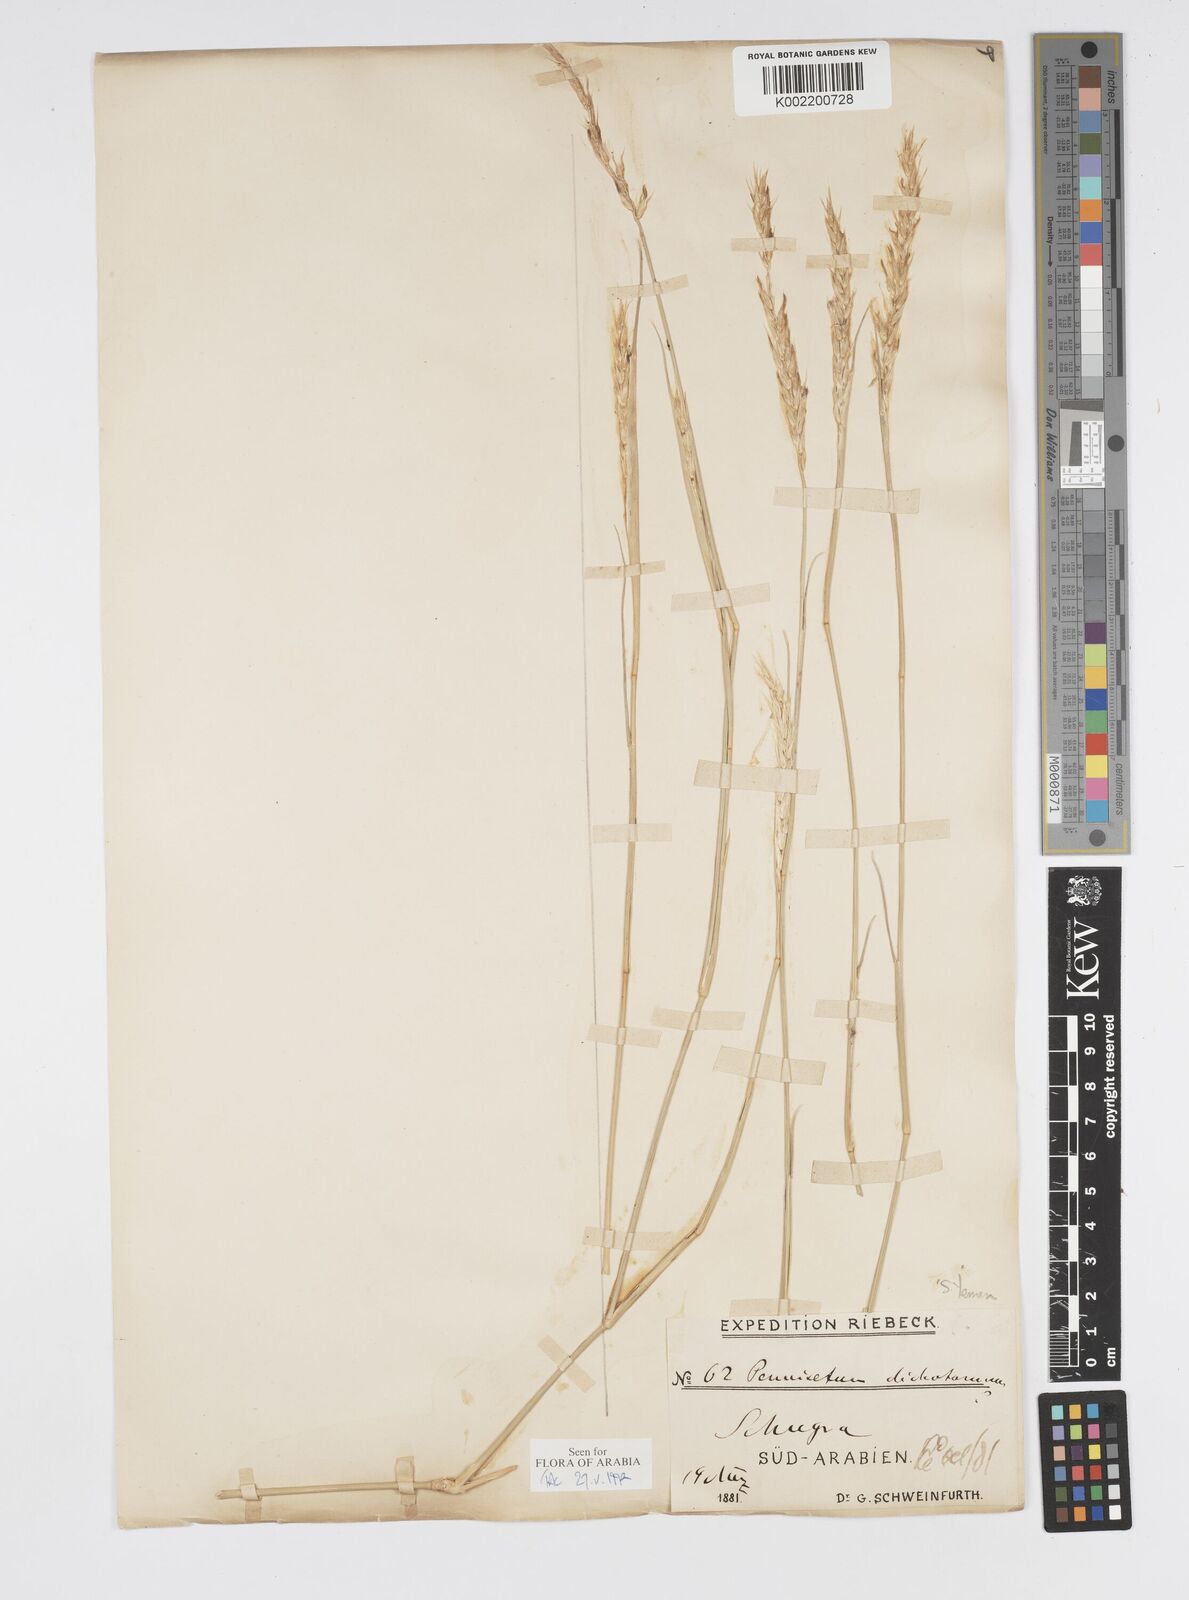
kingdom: Plantae
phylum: Tracheophyta
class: Liliopsida
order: Poales
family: Poaceae
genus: Cenchrus
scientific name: Cenchrus divisus
